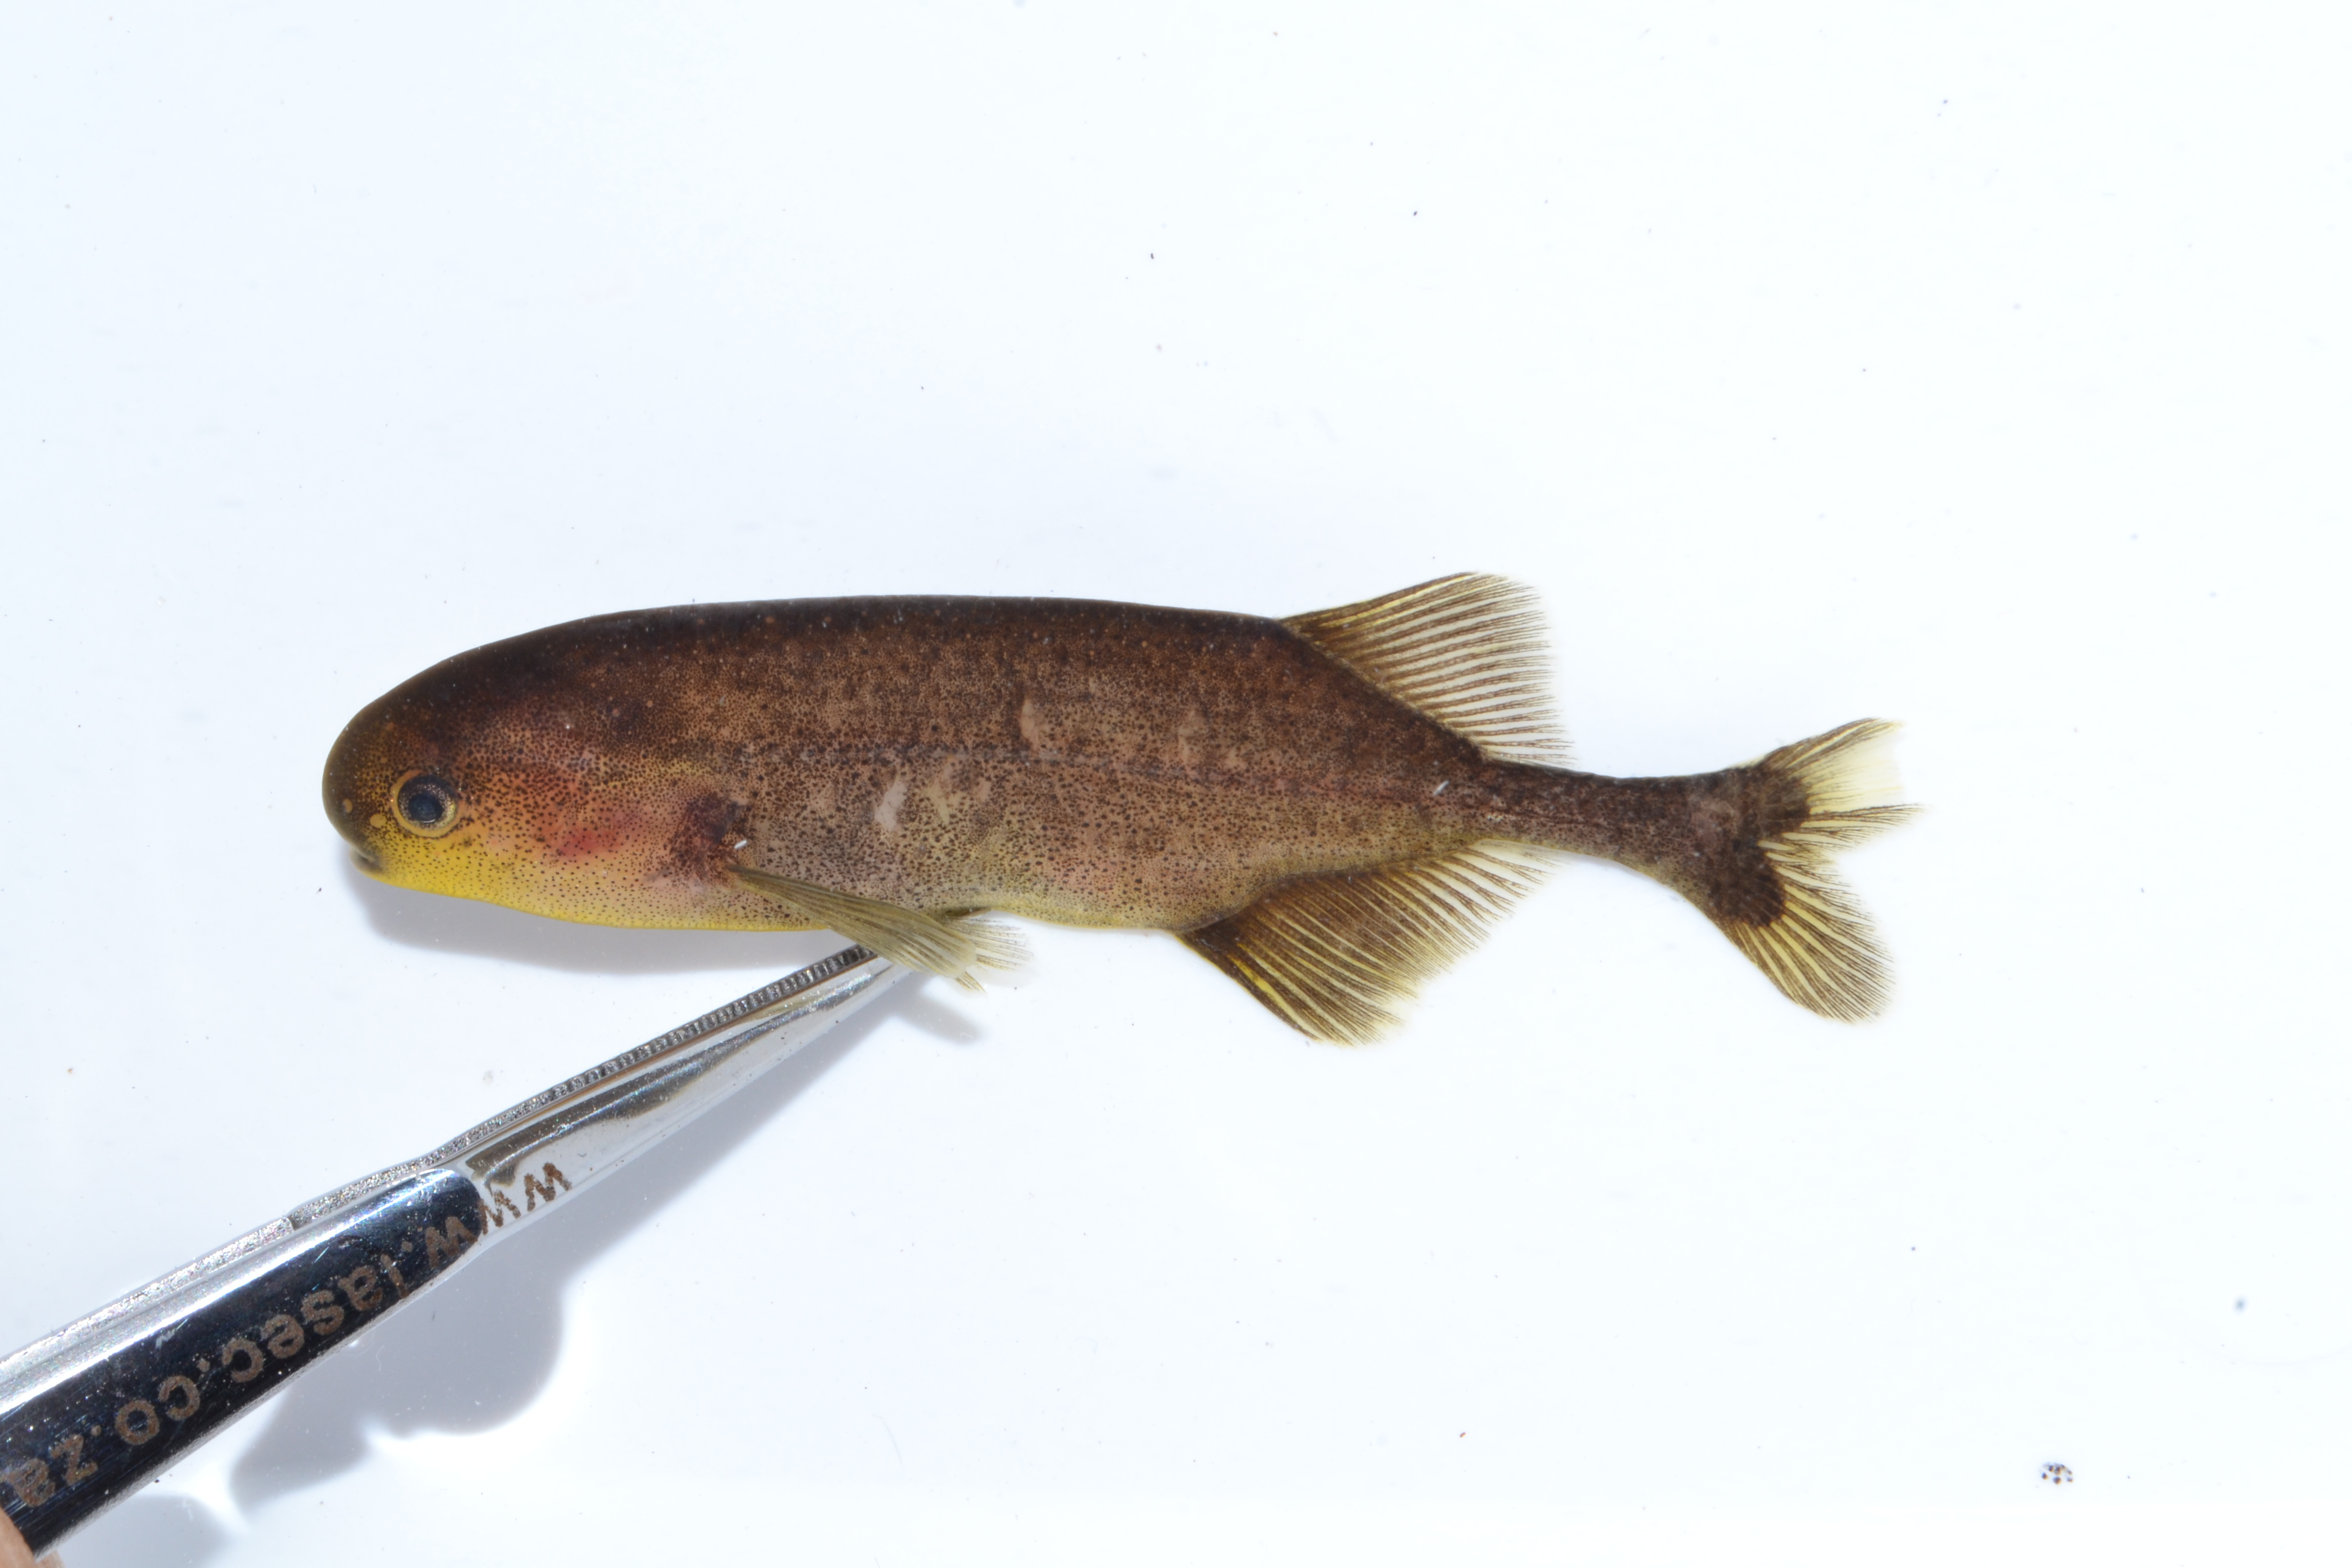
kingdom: Animalia
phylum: Chordata
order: Osteoglossiformes
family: Mormyridae
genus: Pollimyrus
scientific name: Pollimyrus
